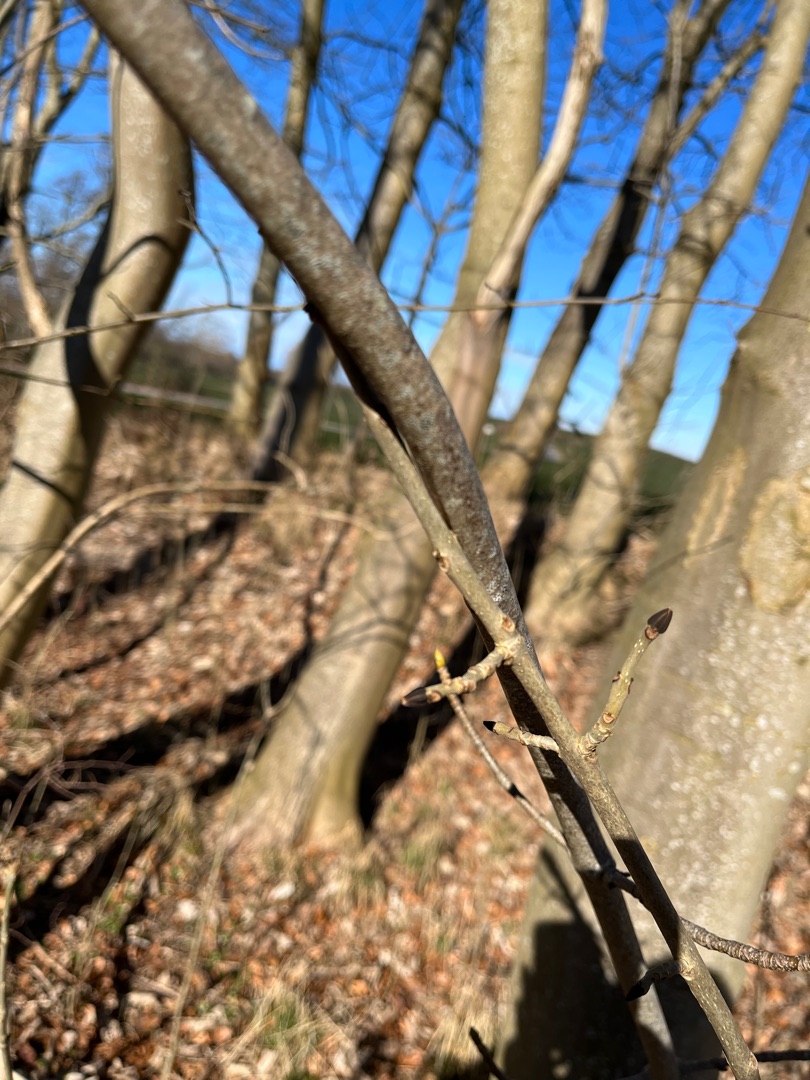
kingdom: Plantae
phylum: Tracheophyta
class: Magnoliopsida
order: Lamiales
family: Oleaceae
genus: Fraxinus
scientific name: Fraxinus excelsior
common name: Ask
